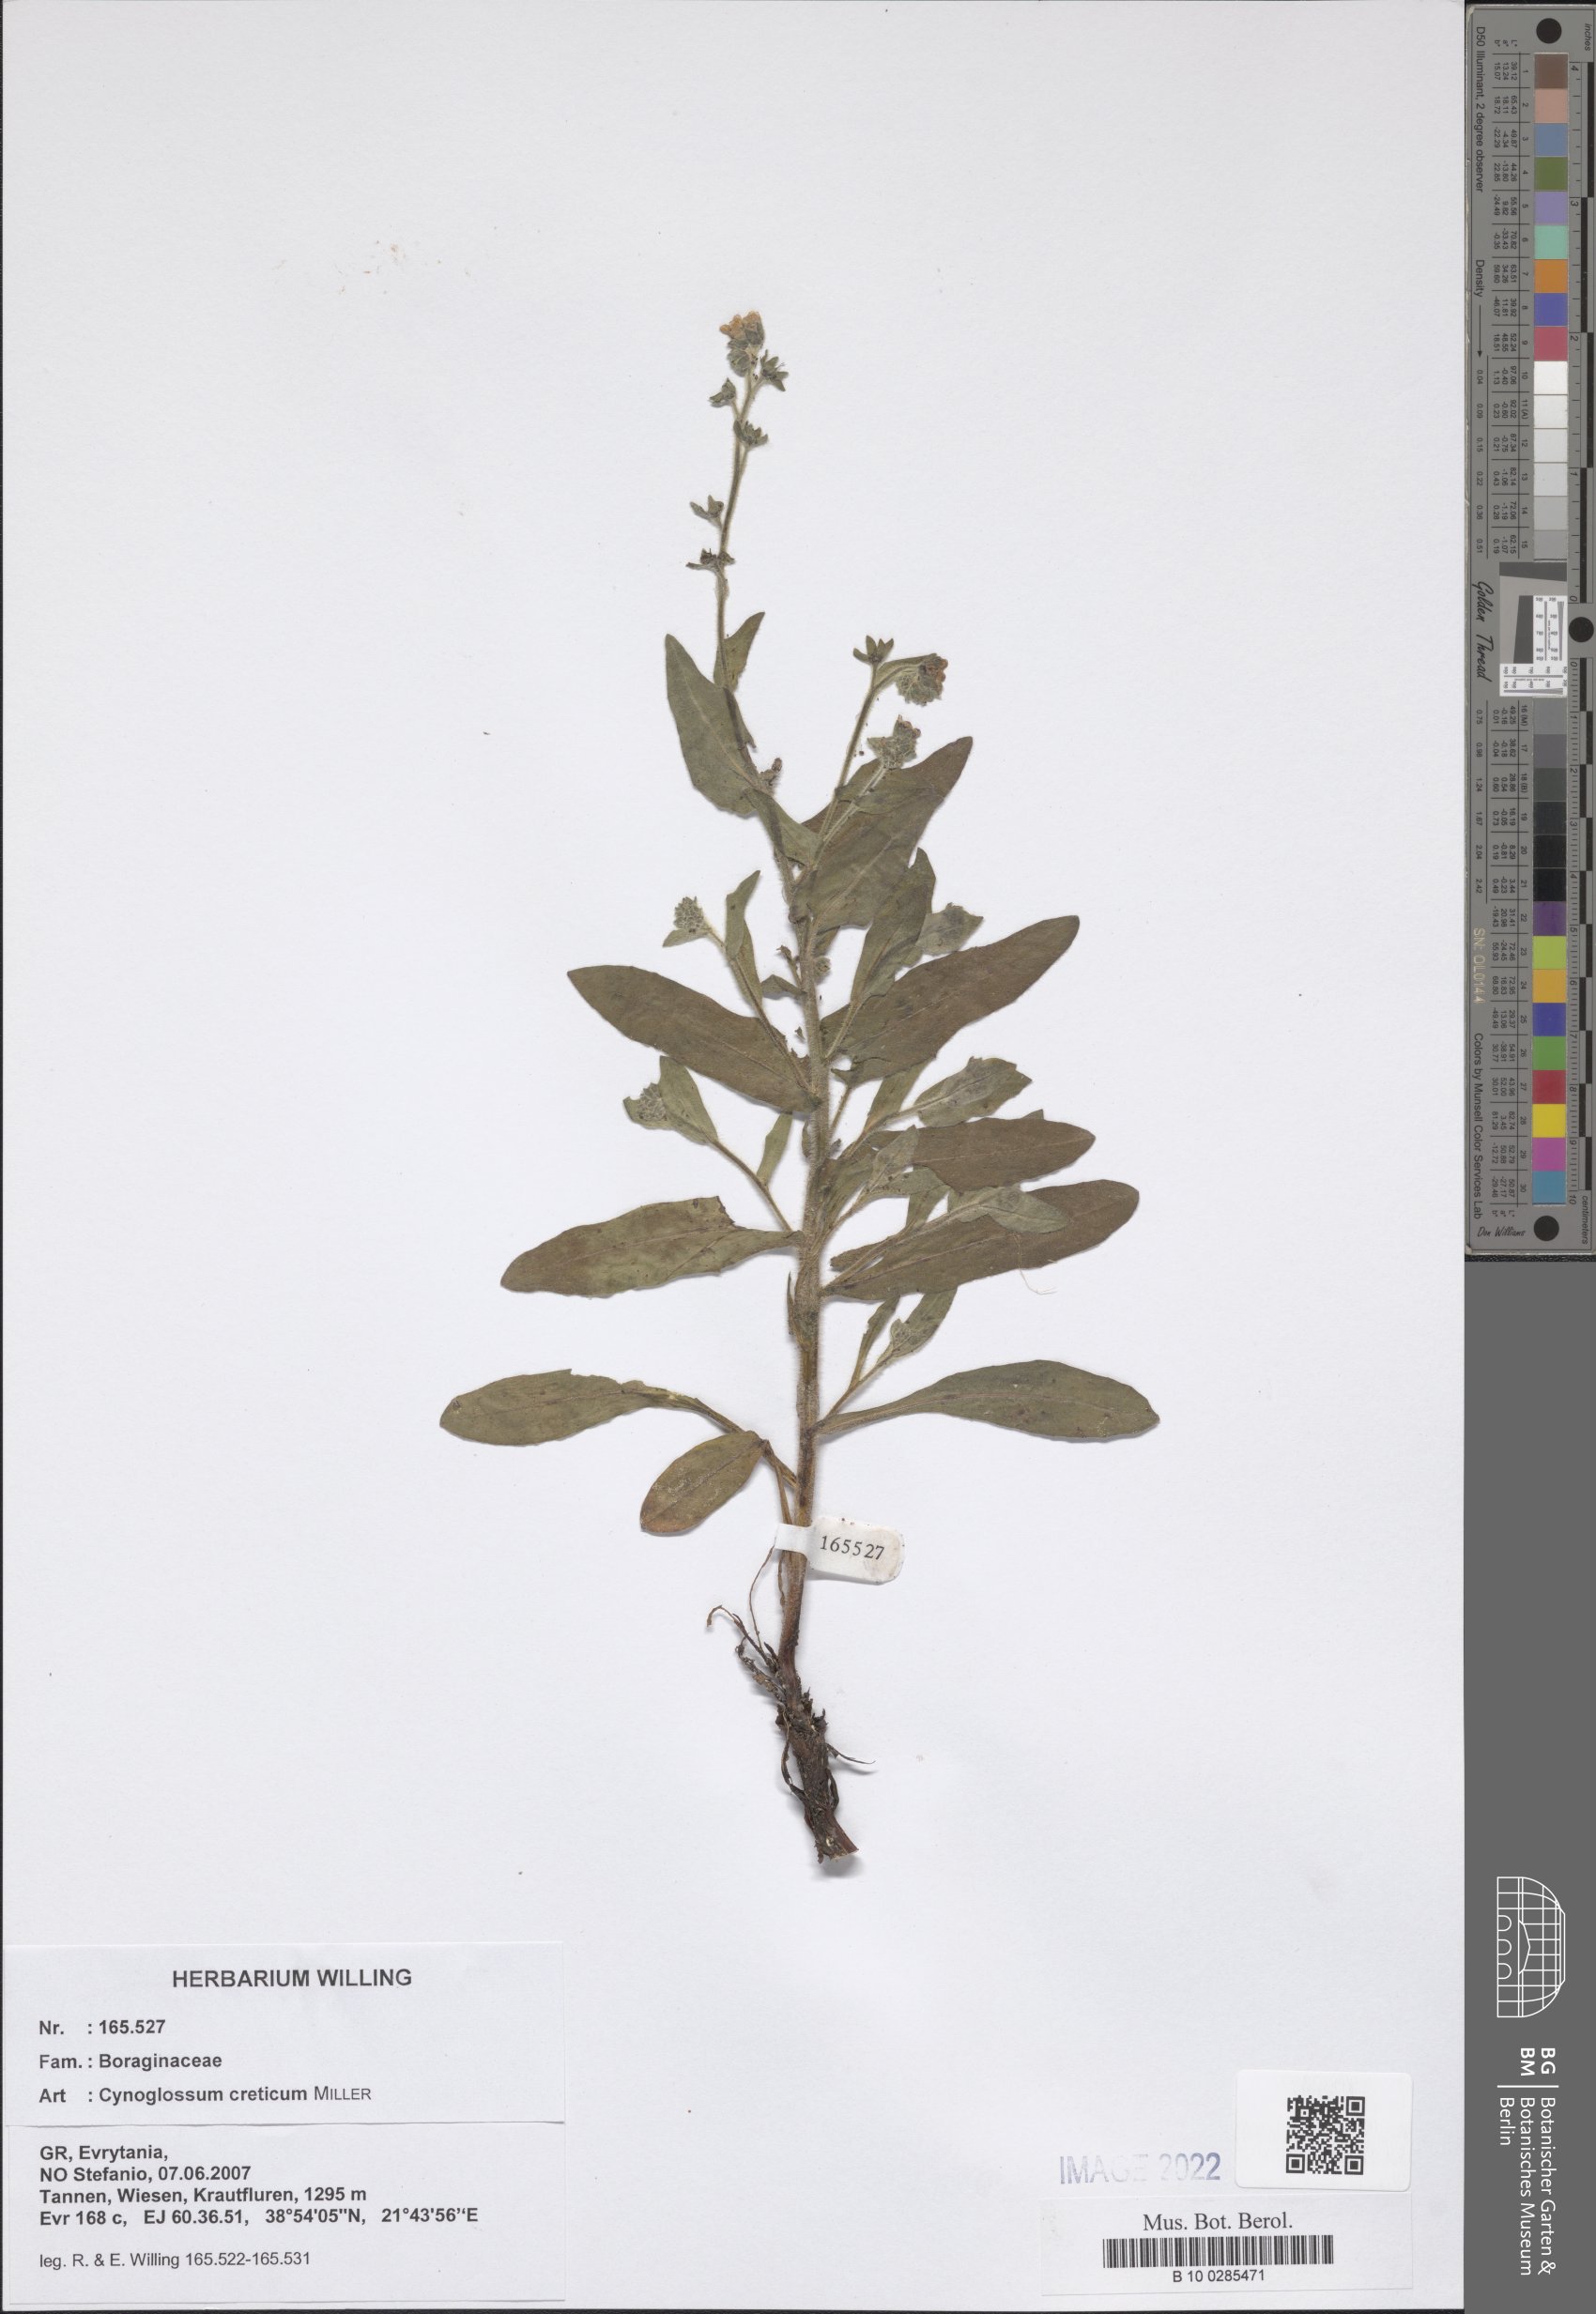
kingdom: Plantae
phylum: Tracheophyta
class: Magnoliopsida
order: Boraginales
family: Boraginaceae
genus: Cynoglossum
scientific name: Cynoglossum creticum
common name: Blue hound's tongue
